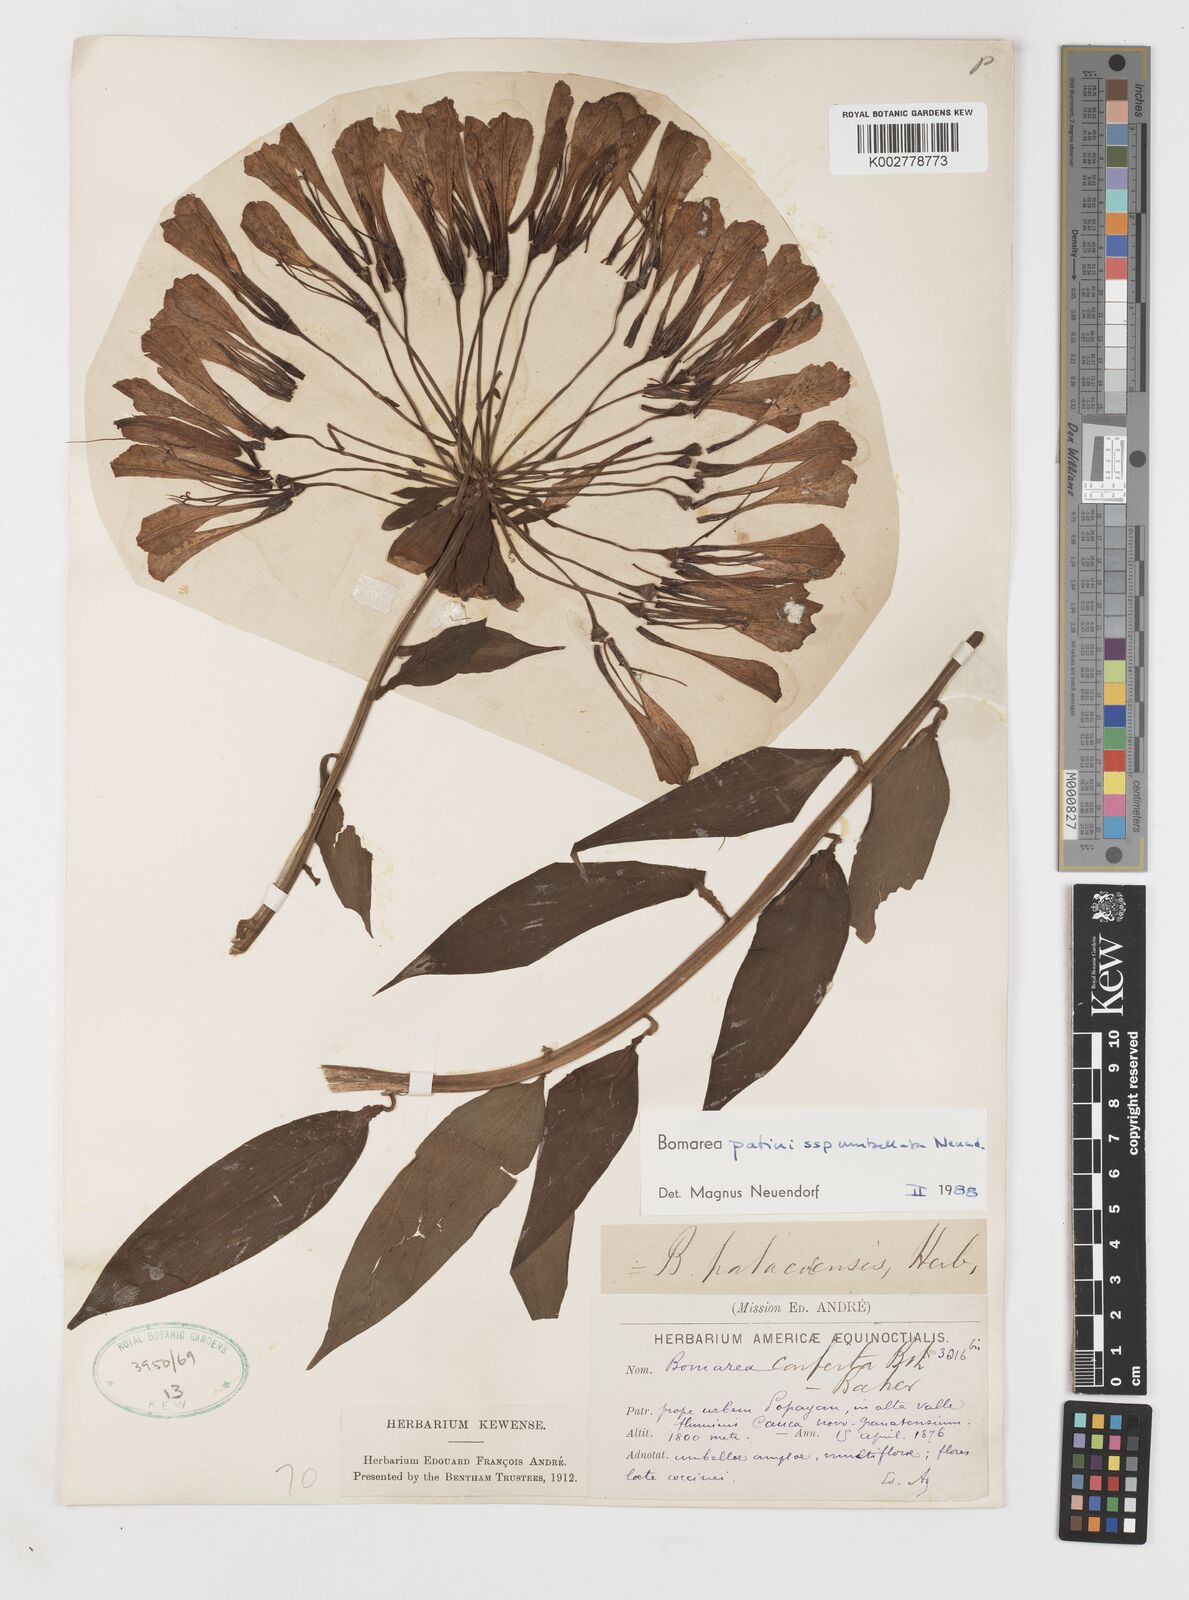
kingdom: Plantae
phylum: Tracheophyta
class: Liliopsida
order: Liliales
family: Alstroemeriaceae
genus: Bomarea
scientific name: Bomarea patinii
